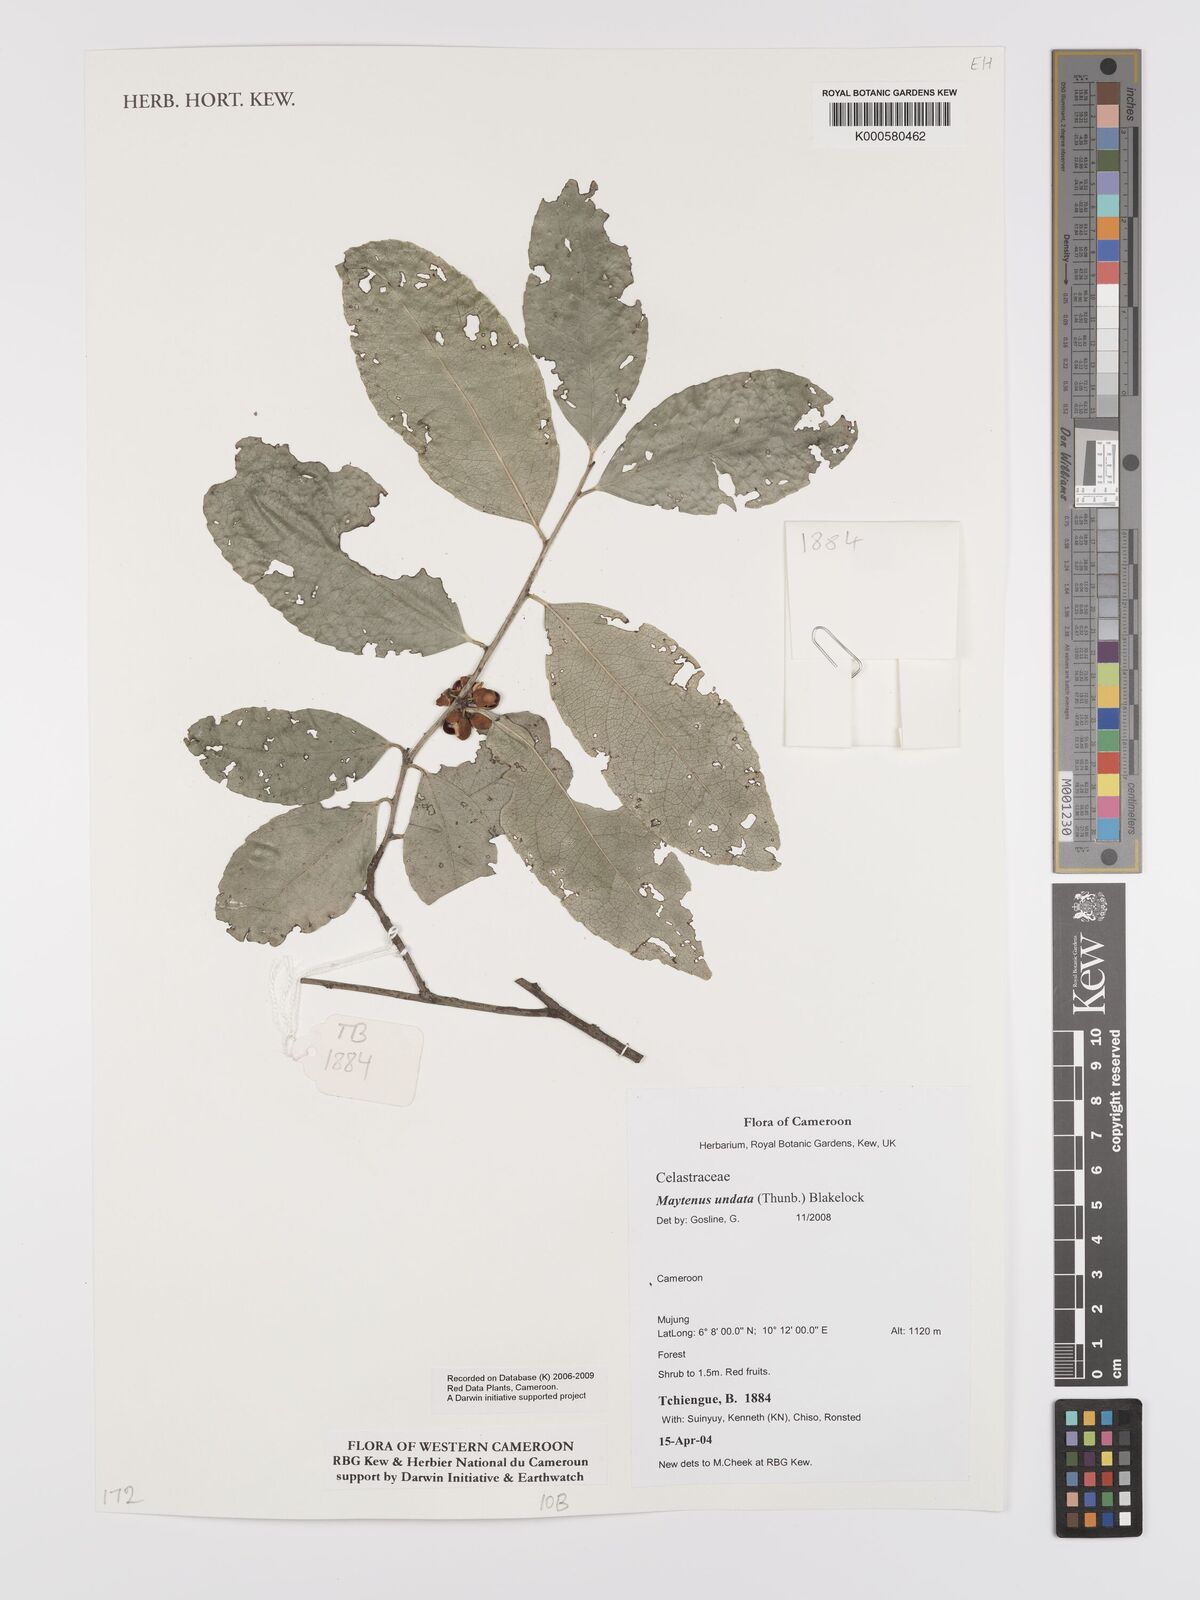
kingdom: Plantae
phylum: Tracheophyta
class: Magnoliopsida
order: Celastrales
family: Celastraceae
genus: Gymnosporia
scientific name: Gymnosporia undata
